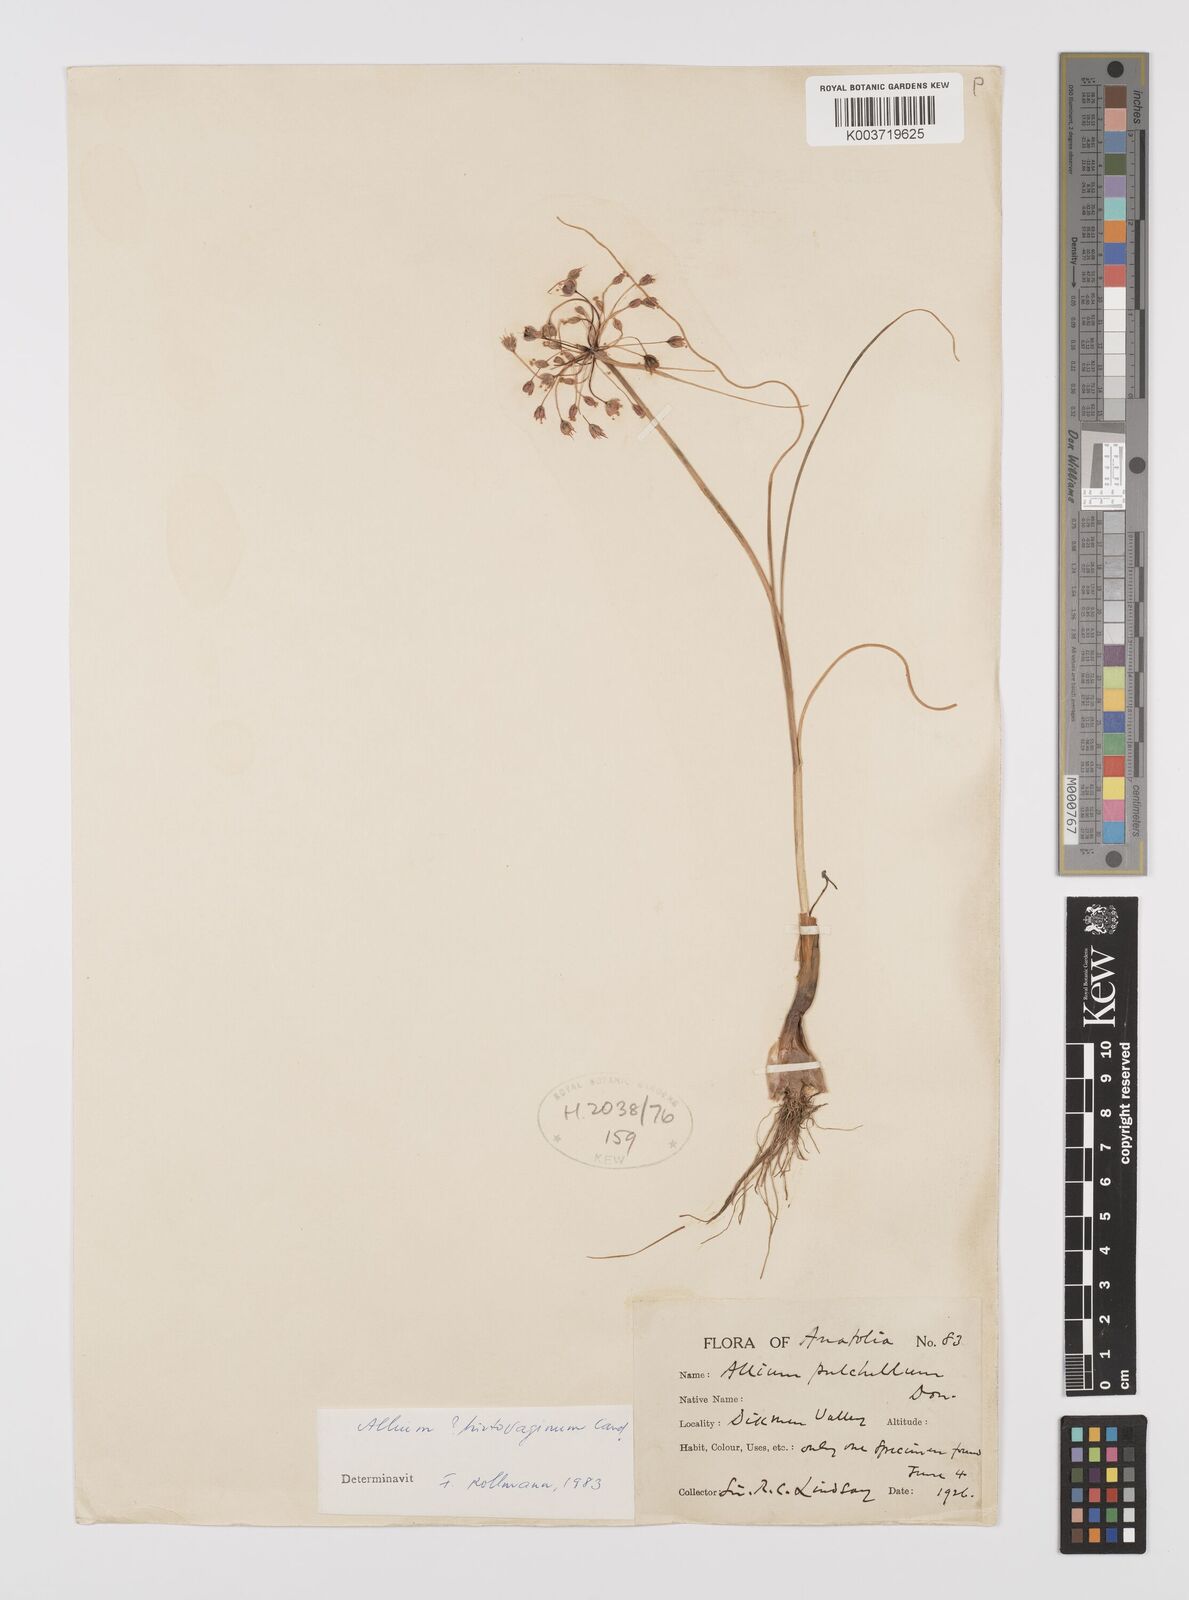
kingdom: Plantae
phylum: Tracheophyta
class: Liliopsida
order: Asparagales
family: Amaryllidaceae
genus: Allium
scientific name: Allium hirtovaginum
